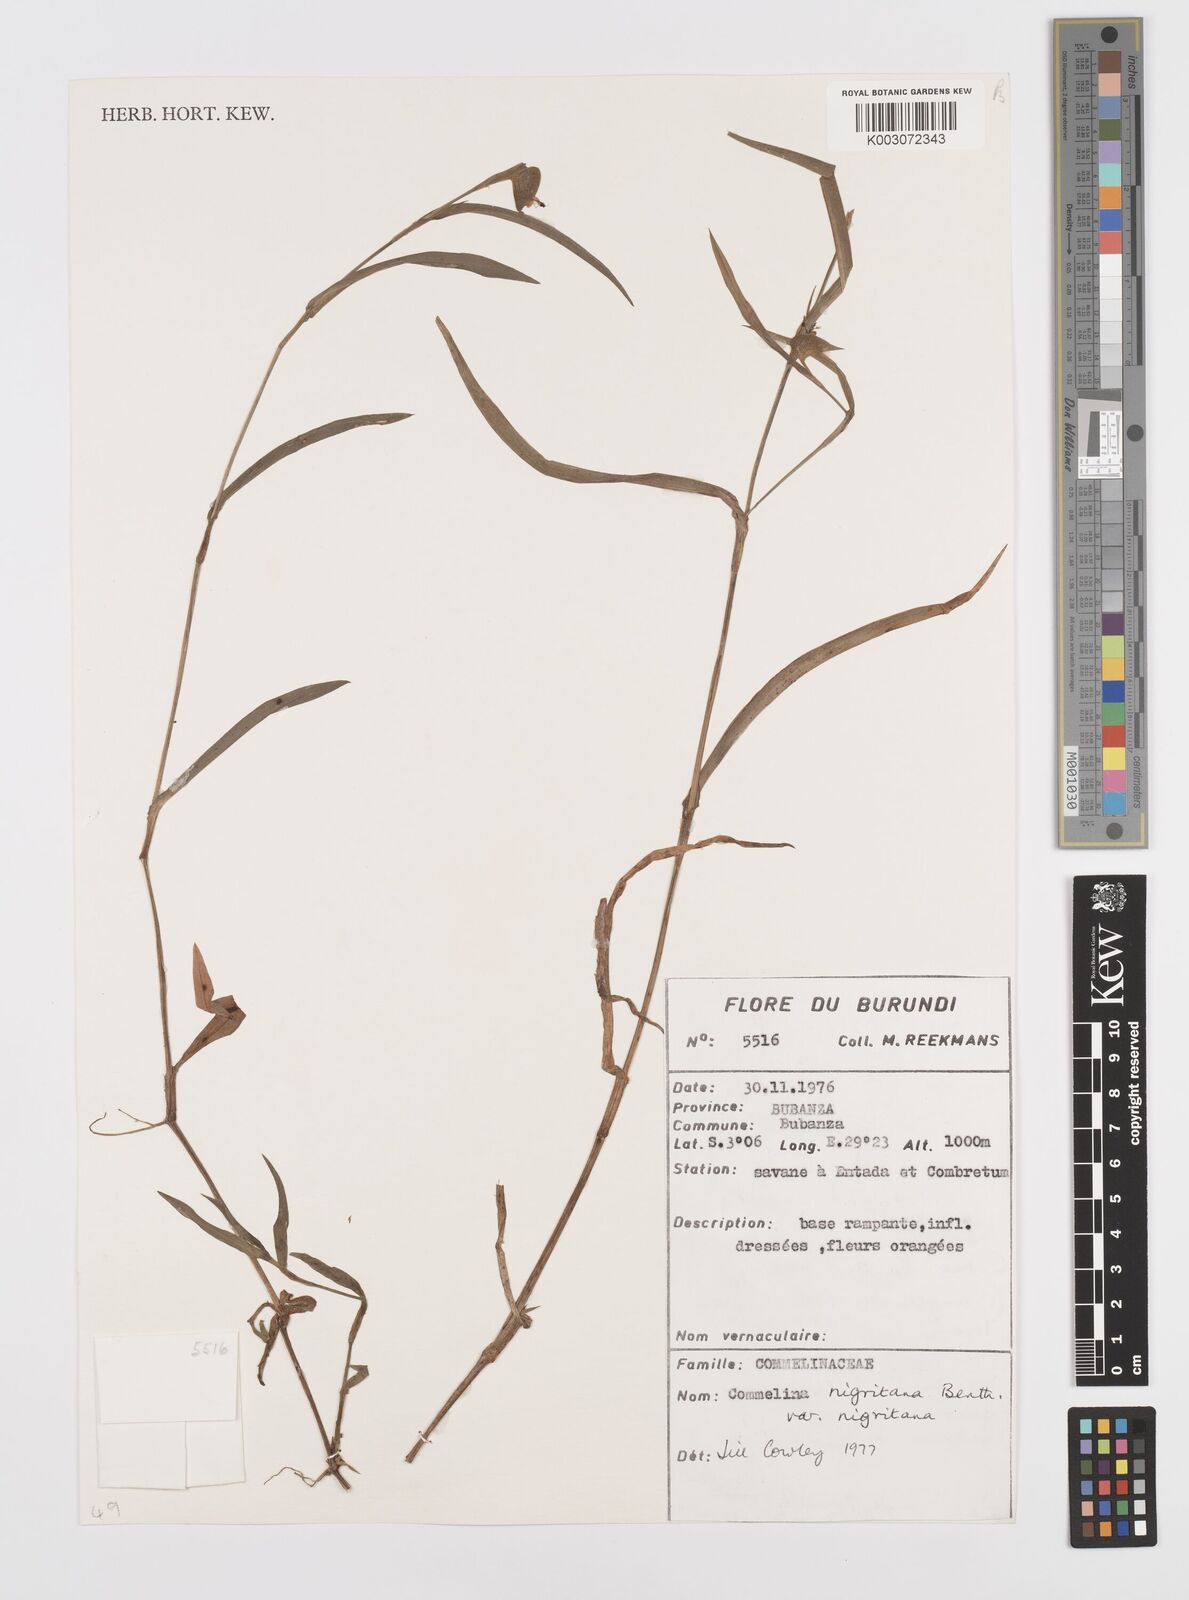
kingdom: Plantae
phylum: Tracheophyta
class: Liliopsida
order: Commelinales
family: Commelinaceae
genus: Commelina
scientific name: Commelina
